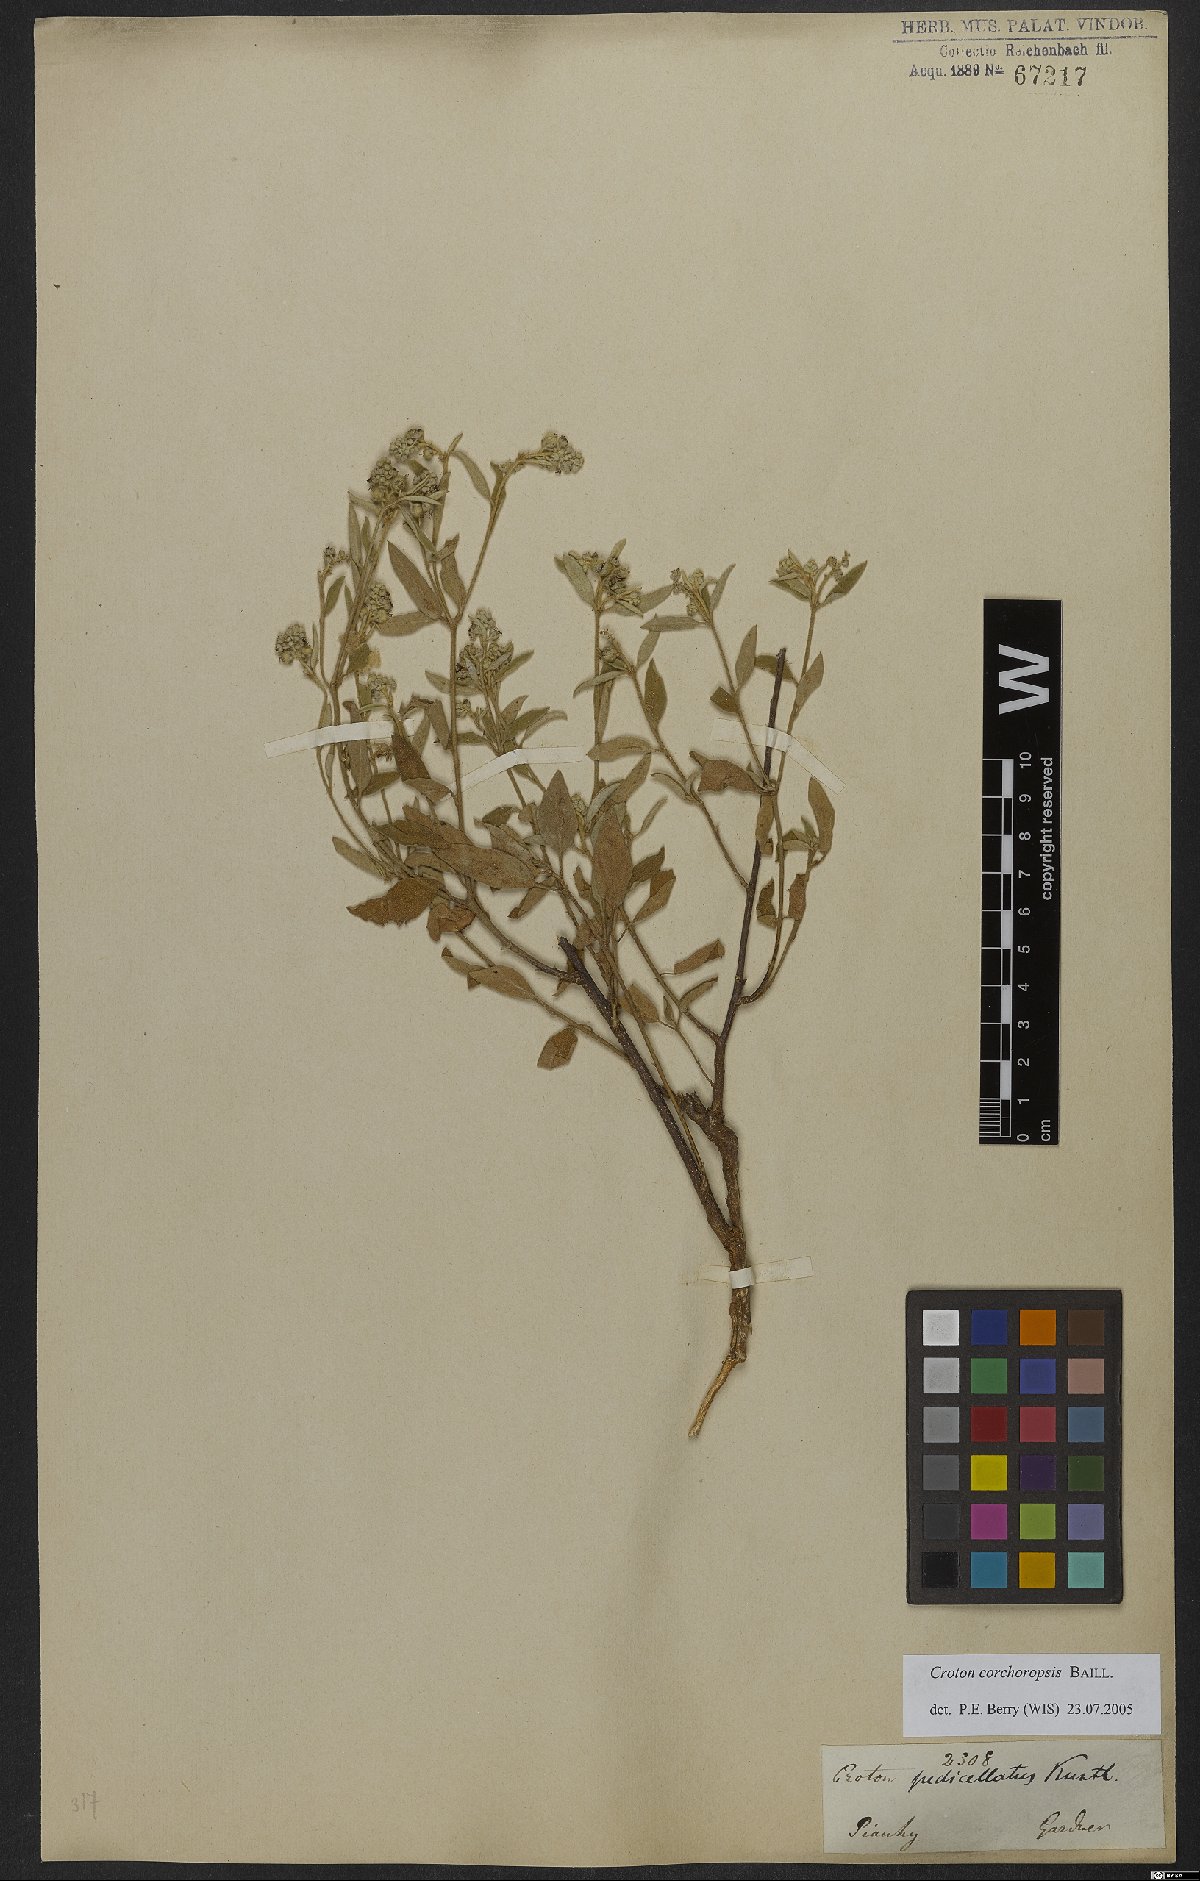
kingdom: Plantae
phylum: Tracheophyta
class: Magnoliopsida
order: Malpighiales
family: Euphorbiaceae
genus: Croton
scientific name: Croton corchoropsis
